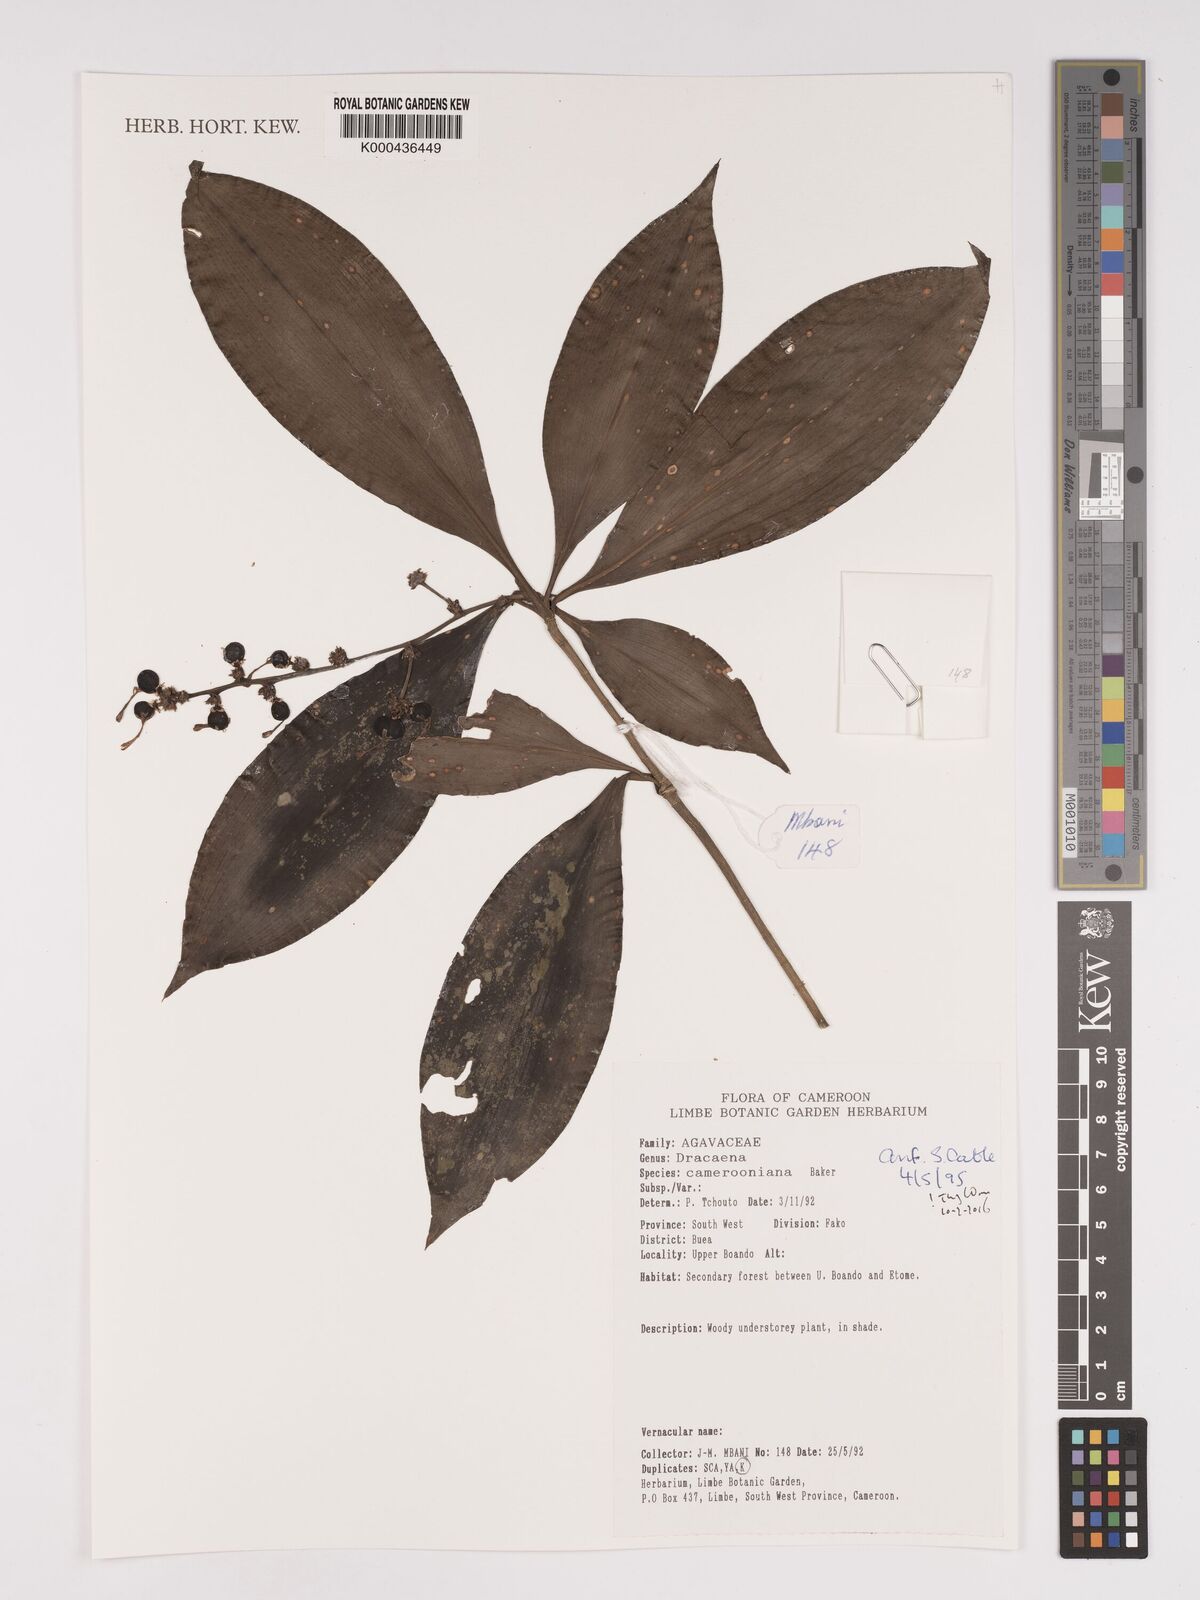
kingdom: Plantae
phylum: Tracheophyta
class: Liliopsida
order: Asparagales
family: Asparagaceae
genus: Dracaena
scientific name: Dracaena camerooniana
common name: Dragon tree
